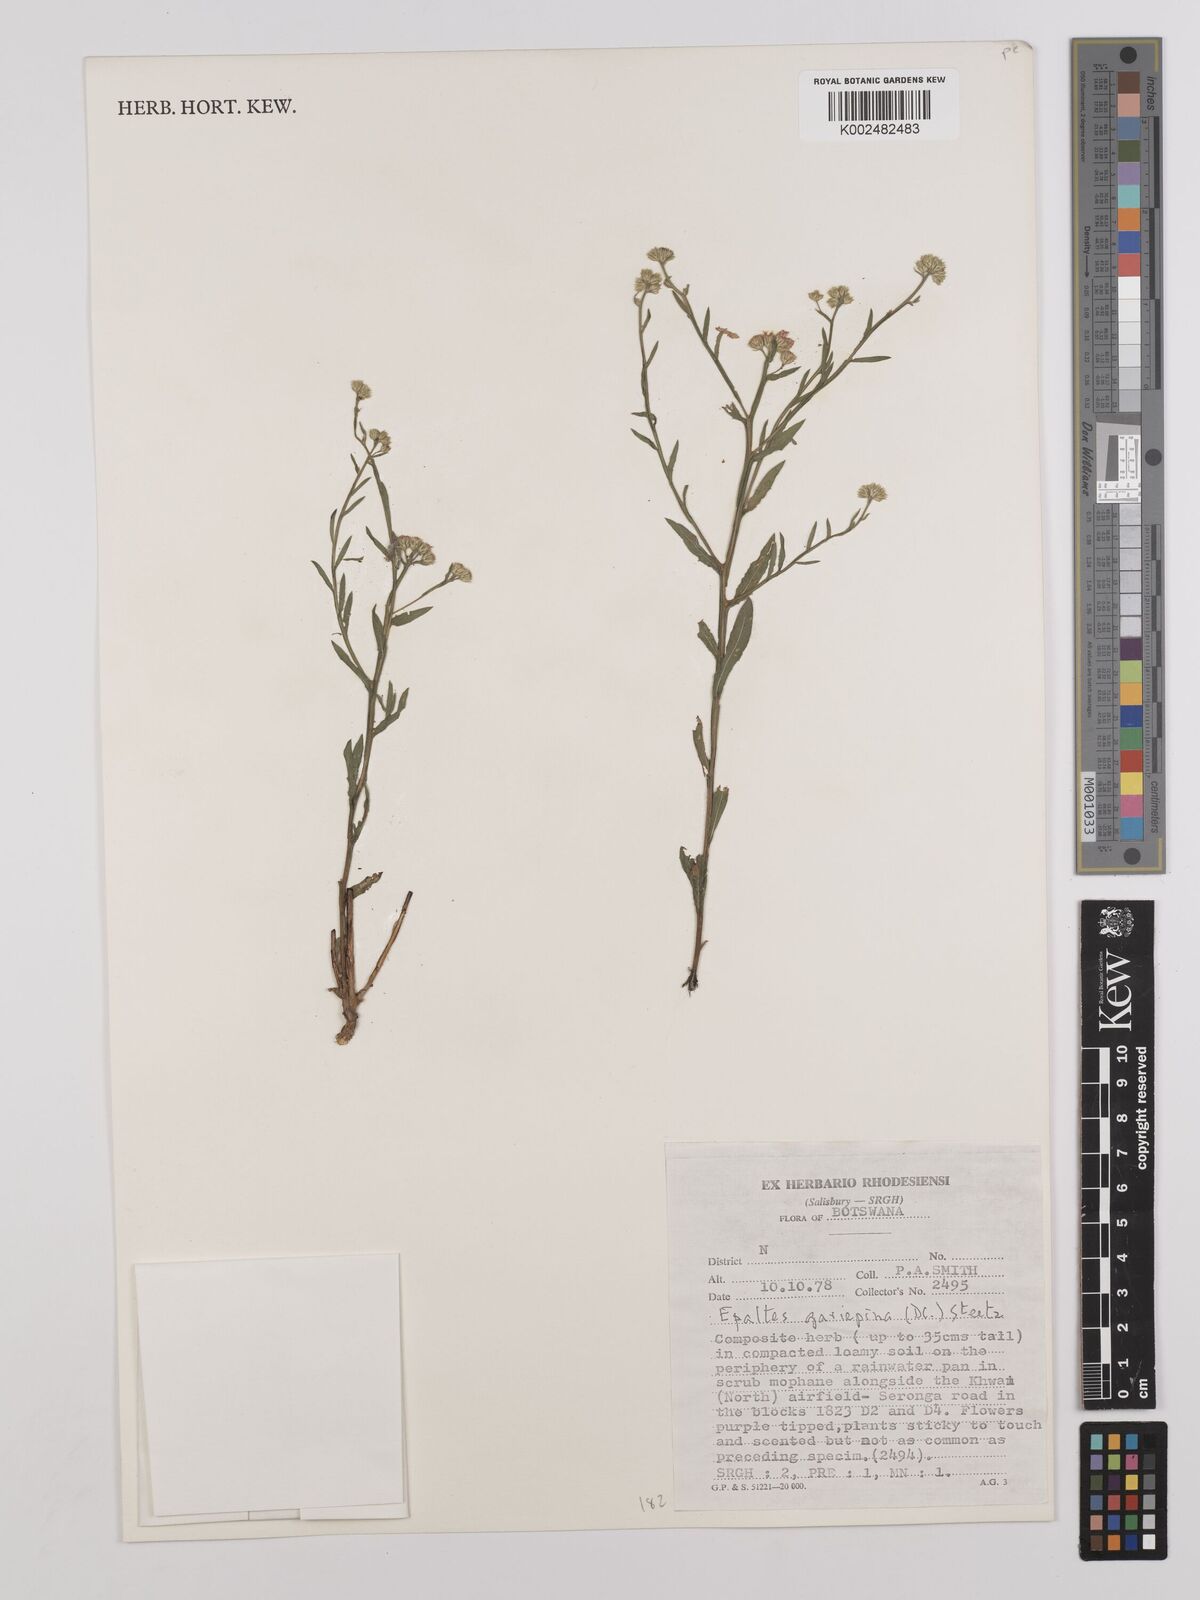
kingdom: Plantae
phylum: Tracheophyta
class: Magnoliopsida
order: Asterales
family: Asteraceae
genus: Litogyne
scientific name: Litogyne gariepina
